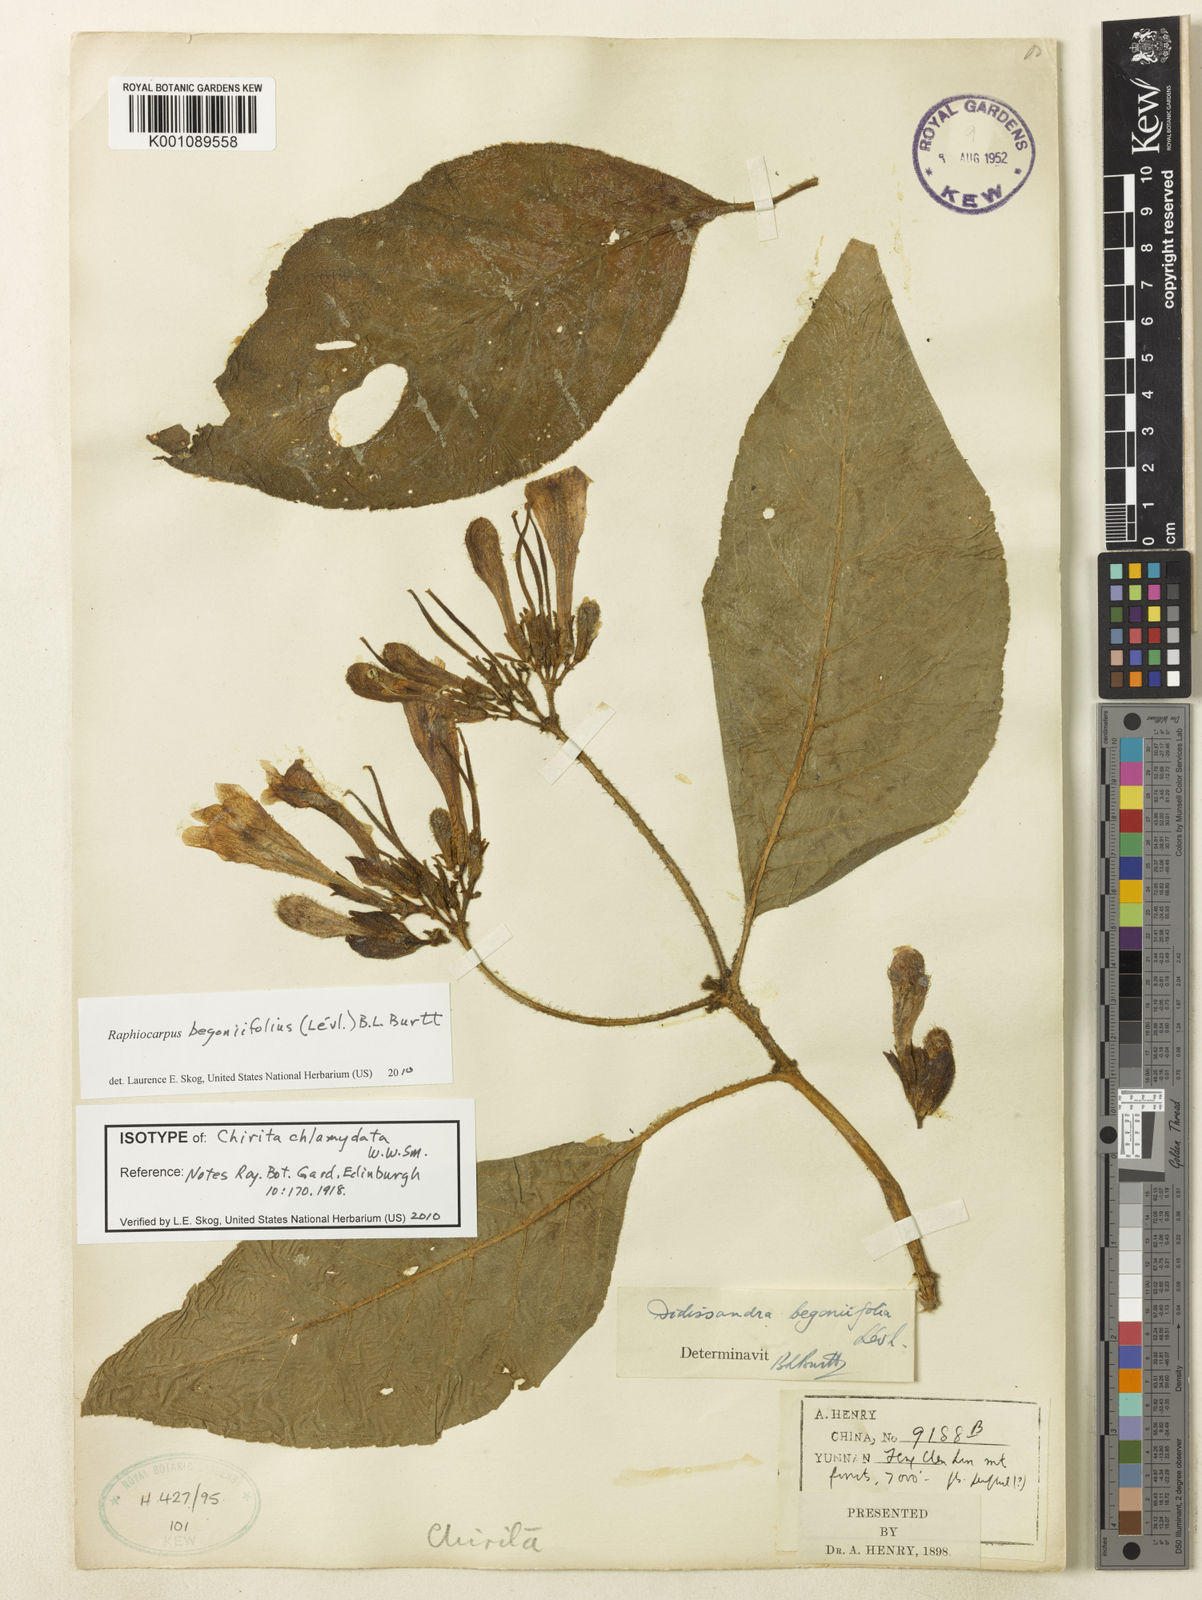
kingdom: Plantae
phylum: Tracheophyta
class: Magnoliopsida
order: Lamiales
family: Gesneriaceae
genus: Raphiocarpus
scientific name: Raphiocarpus begoniifolius
